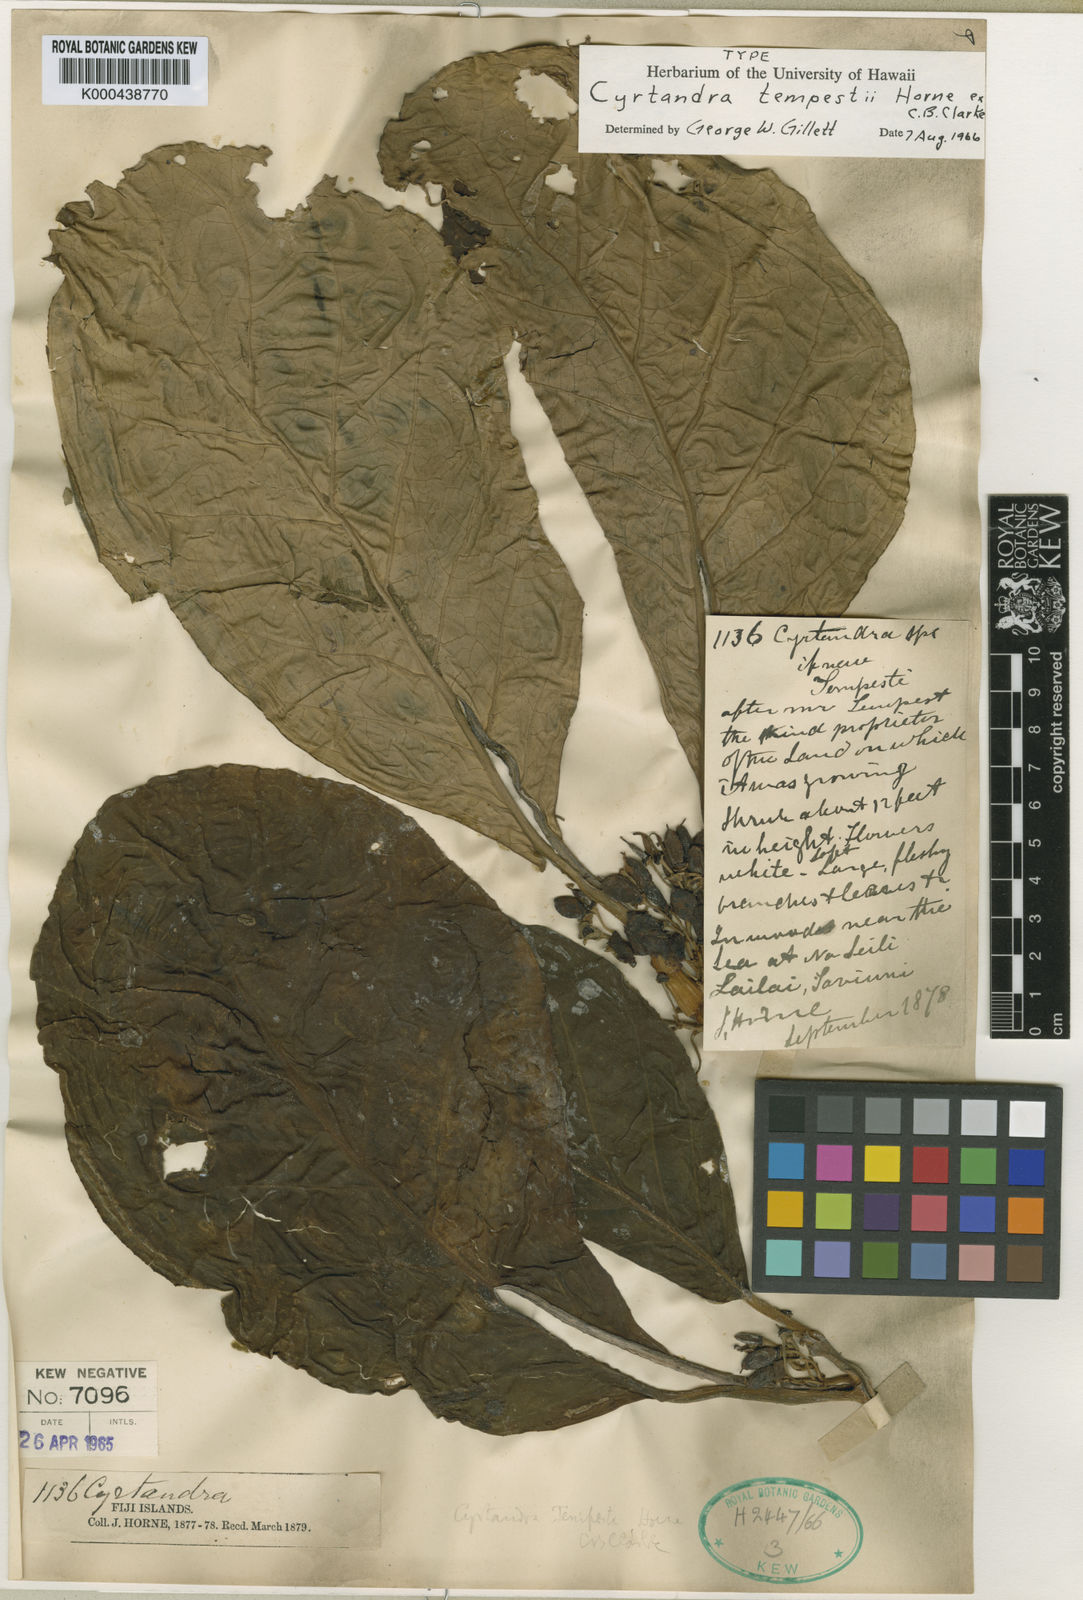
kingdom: Plantae
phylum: Tracheophyta
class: Magnoliopsida
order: Lamiales
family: Gesneriaceae
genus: Cyrtandra
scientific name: Cyrtandra tempestii
